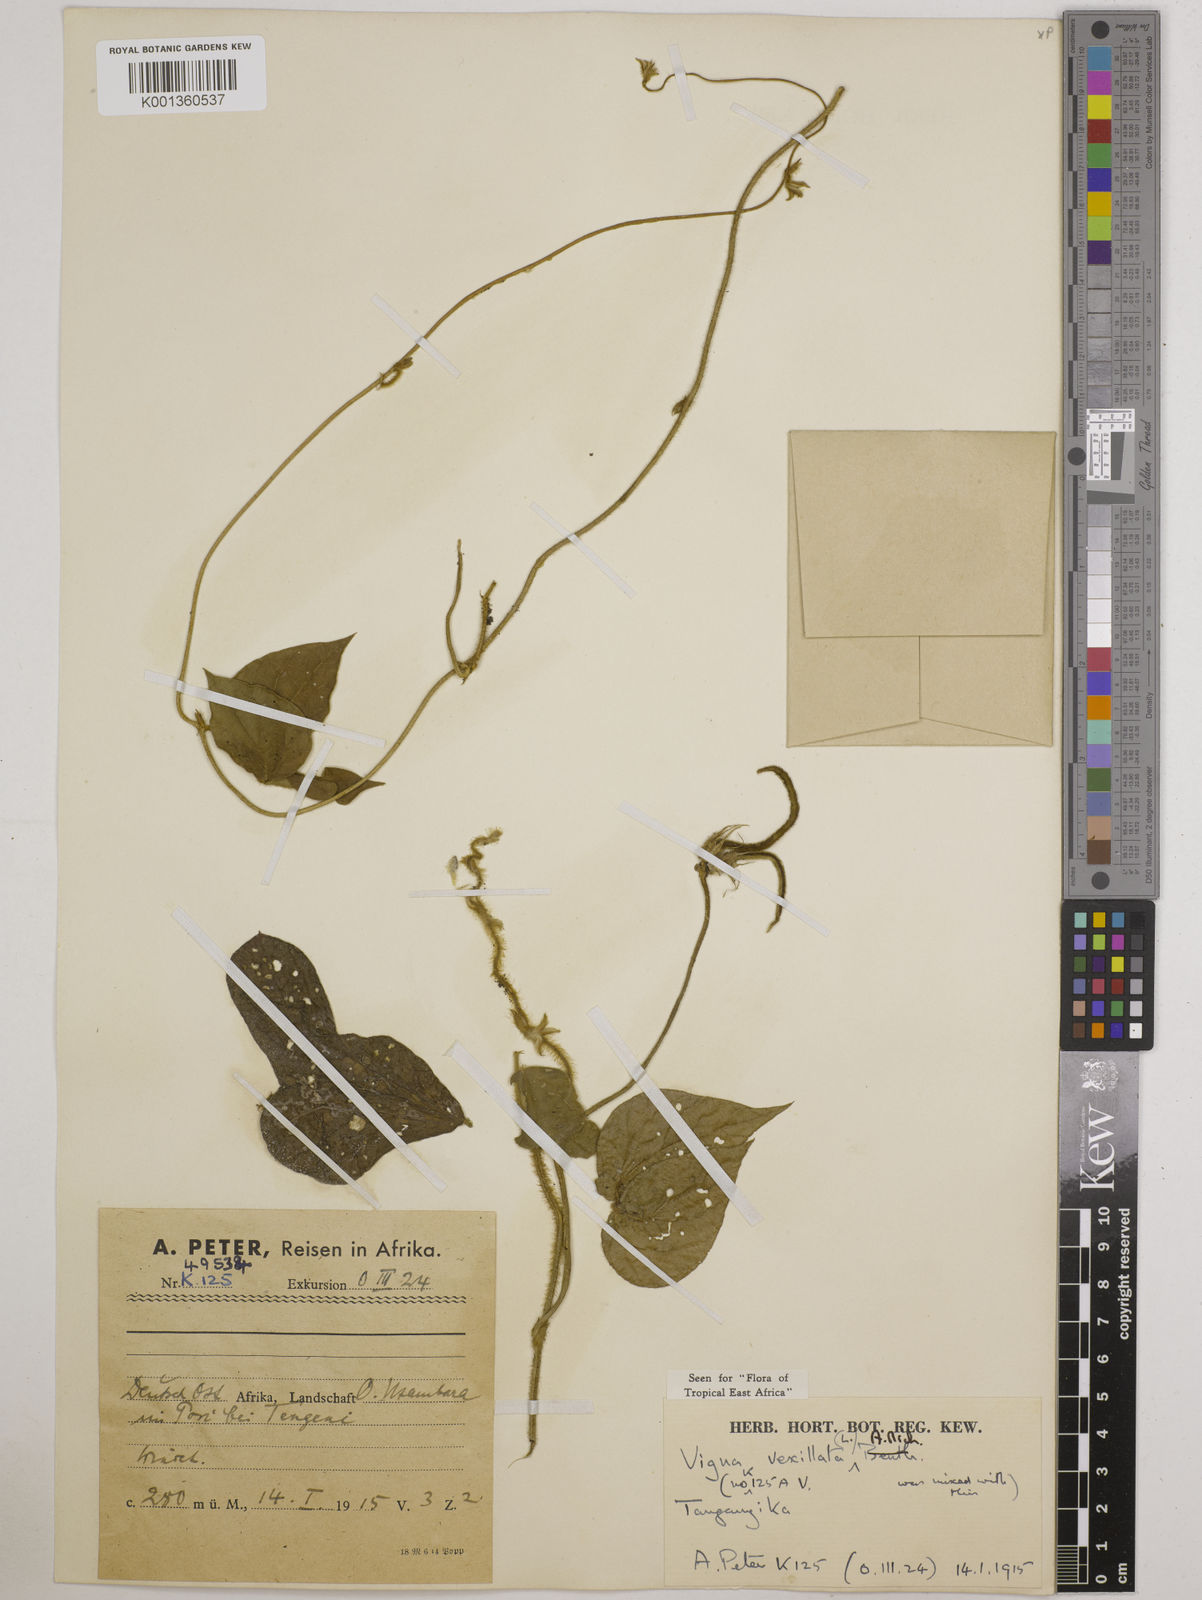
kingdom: Plantae
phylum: Tracheophyta
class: Magnoliopsida
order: Fabales
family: Fabaceae
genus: Vigna
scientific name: Vigna vexillata
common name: Zombi pea
